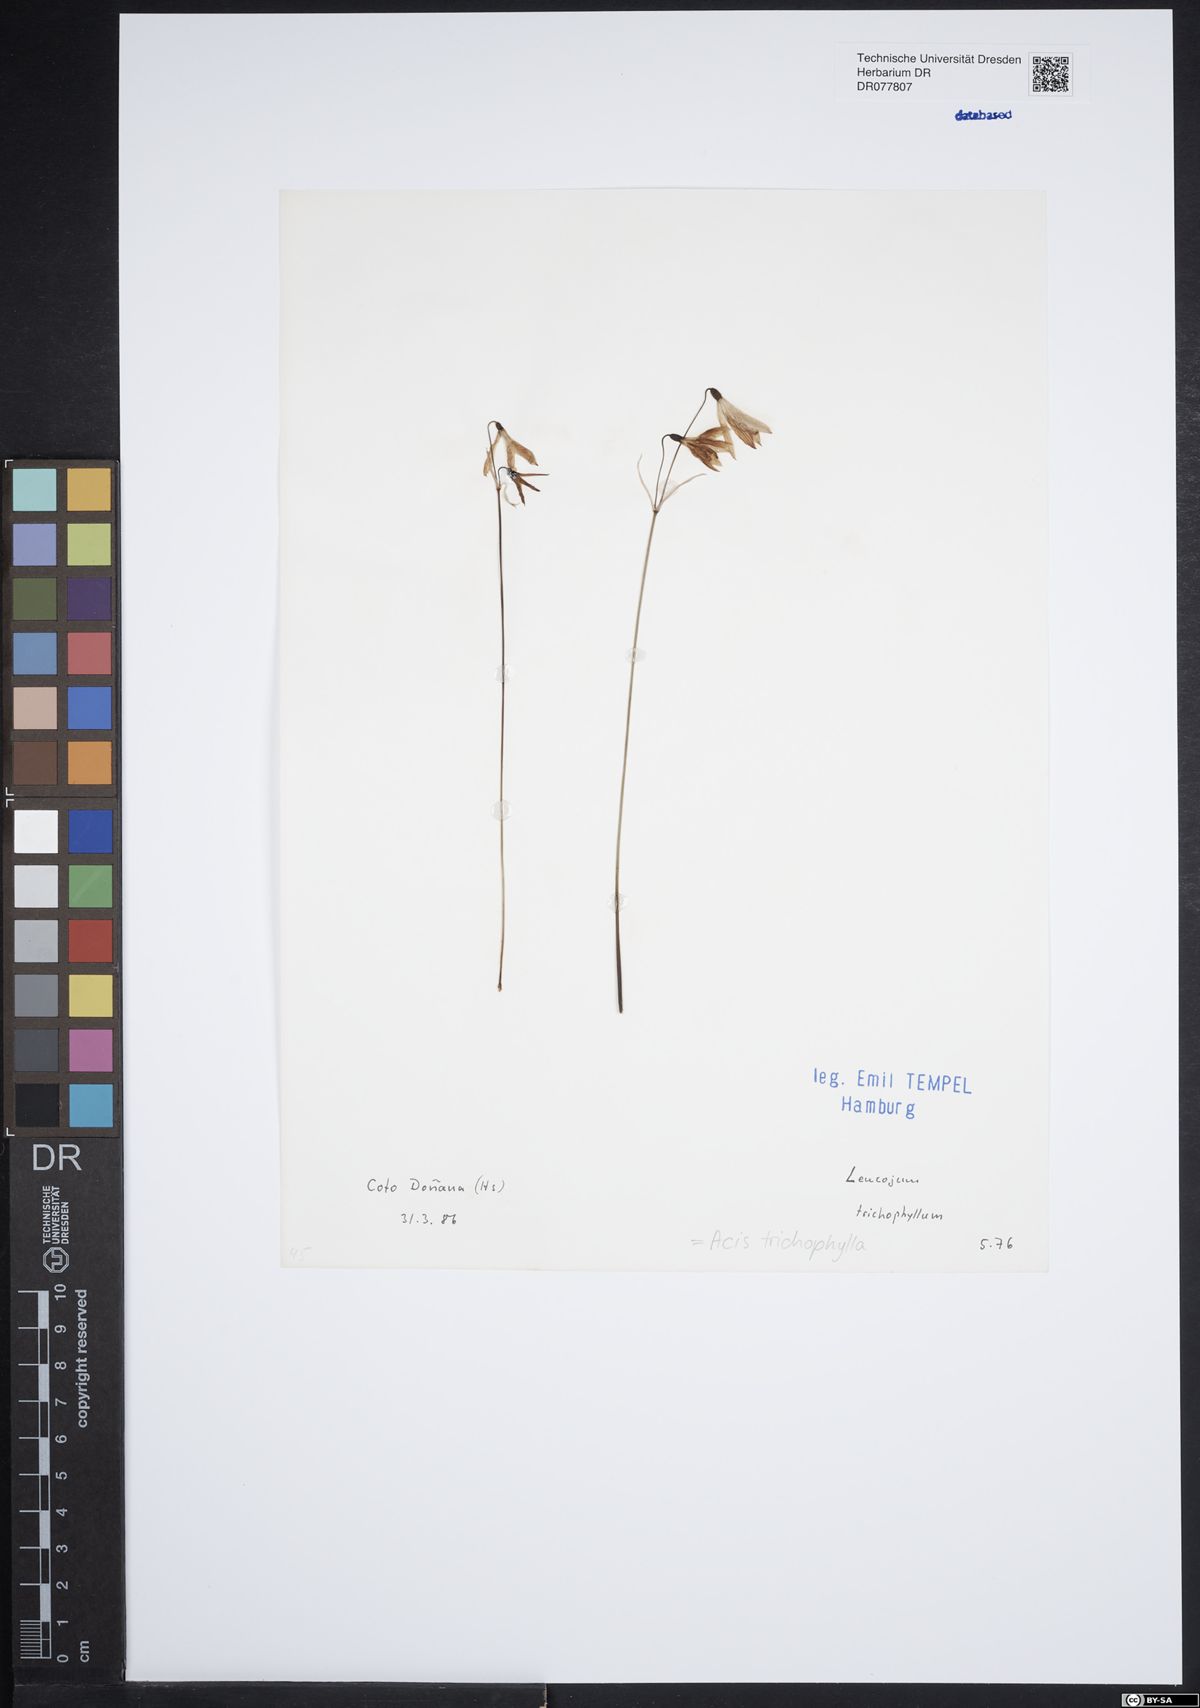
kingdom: Plantae
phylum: Tracheophyta
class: Liliopsida
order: Asparagales
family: Amaryllidaceae
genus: Acis
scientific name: Acis trichophylla
